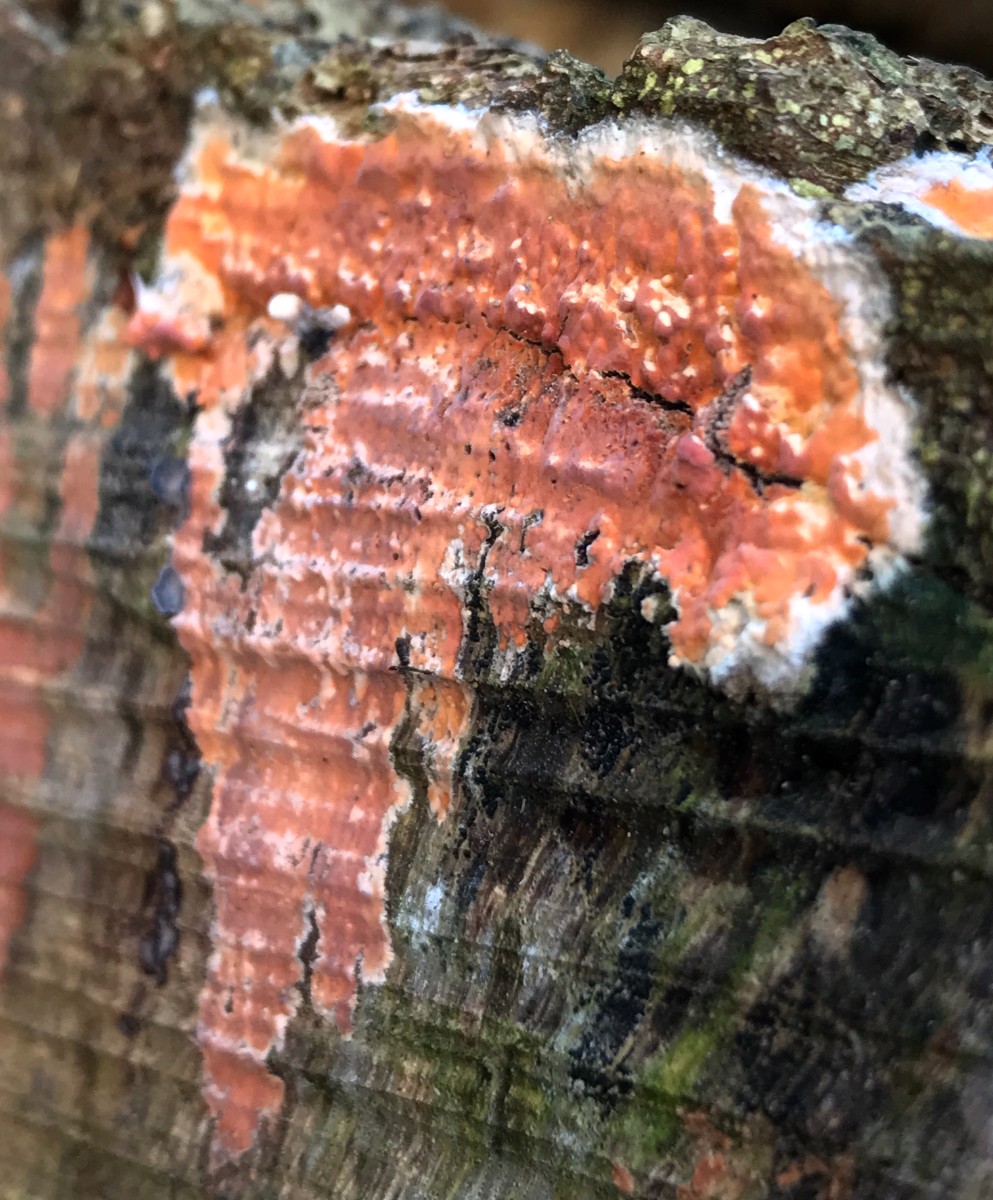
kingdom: Fungi
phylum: Basidiomycota
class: Agaricomycetes
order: Russulales
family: Peniophoraceae
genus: Peniophora
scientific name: Peniophora incarnata
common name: laksefarvet voksskind
